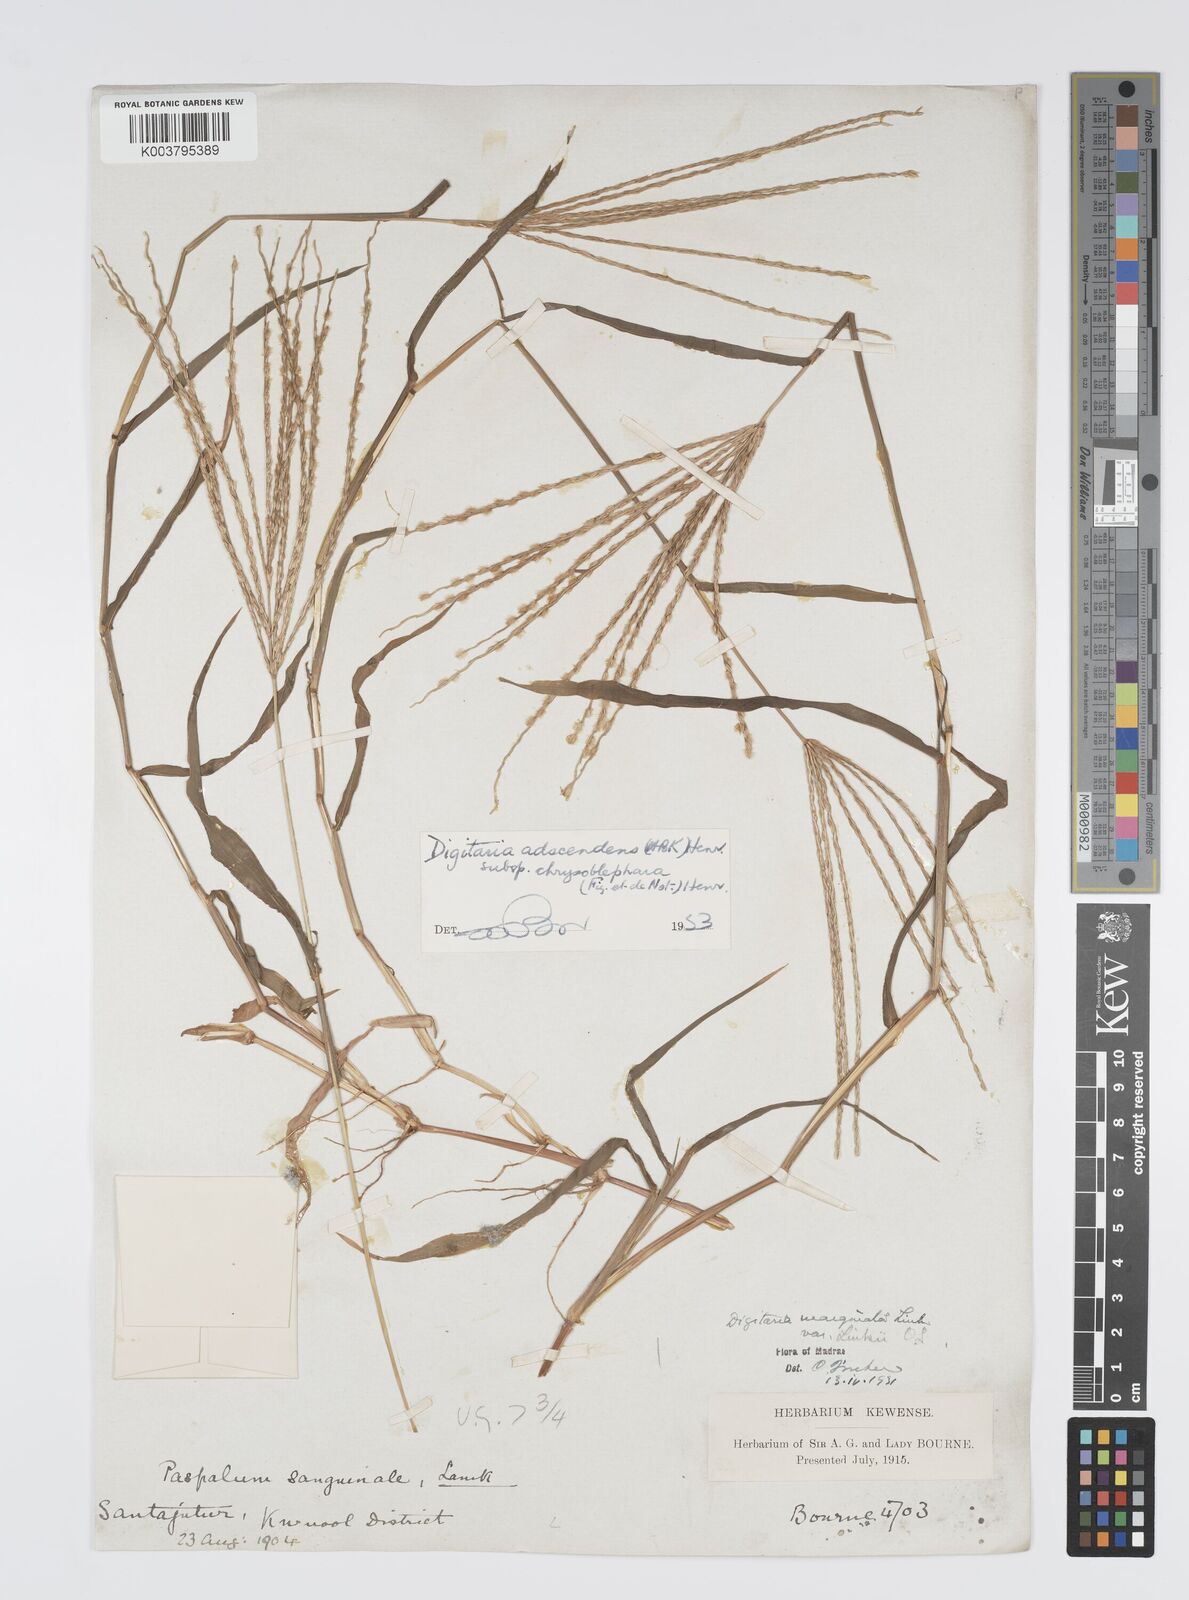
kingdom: Plantae
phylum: Tracheophyta
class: Liliopsida
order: Poales
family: Poaceae
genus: Digitaria
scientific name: Digitaria ciliaris
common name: Tropical finger-grass
